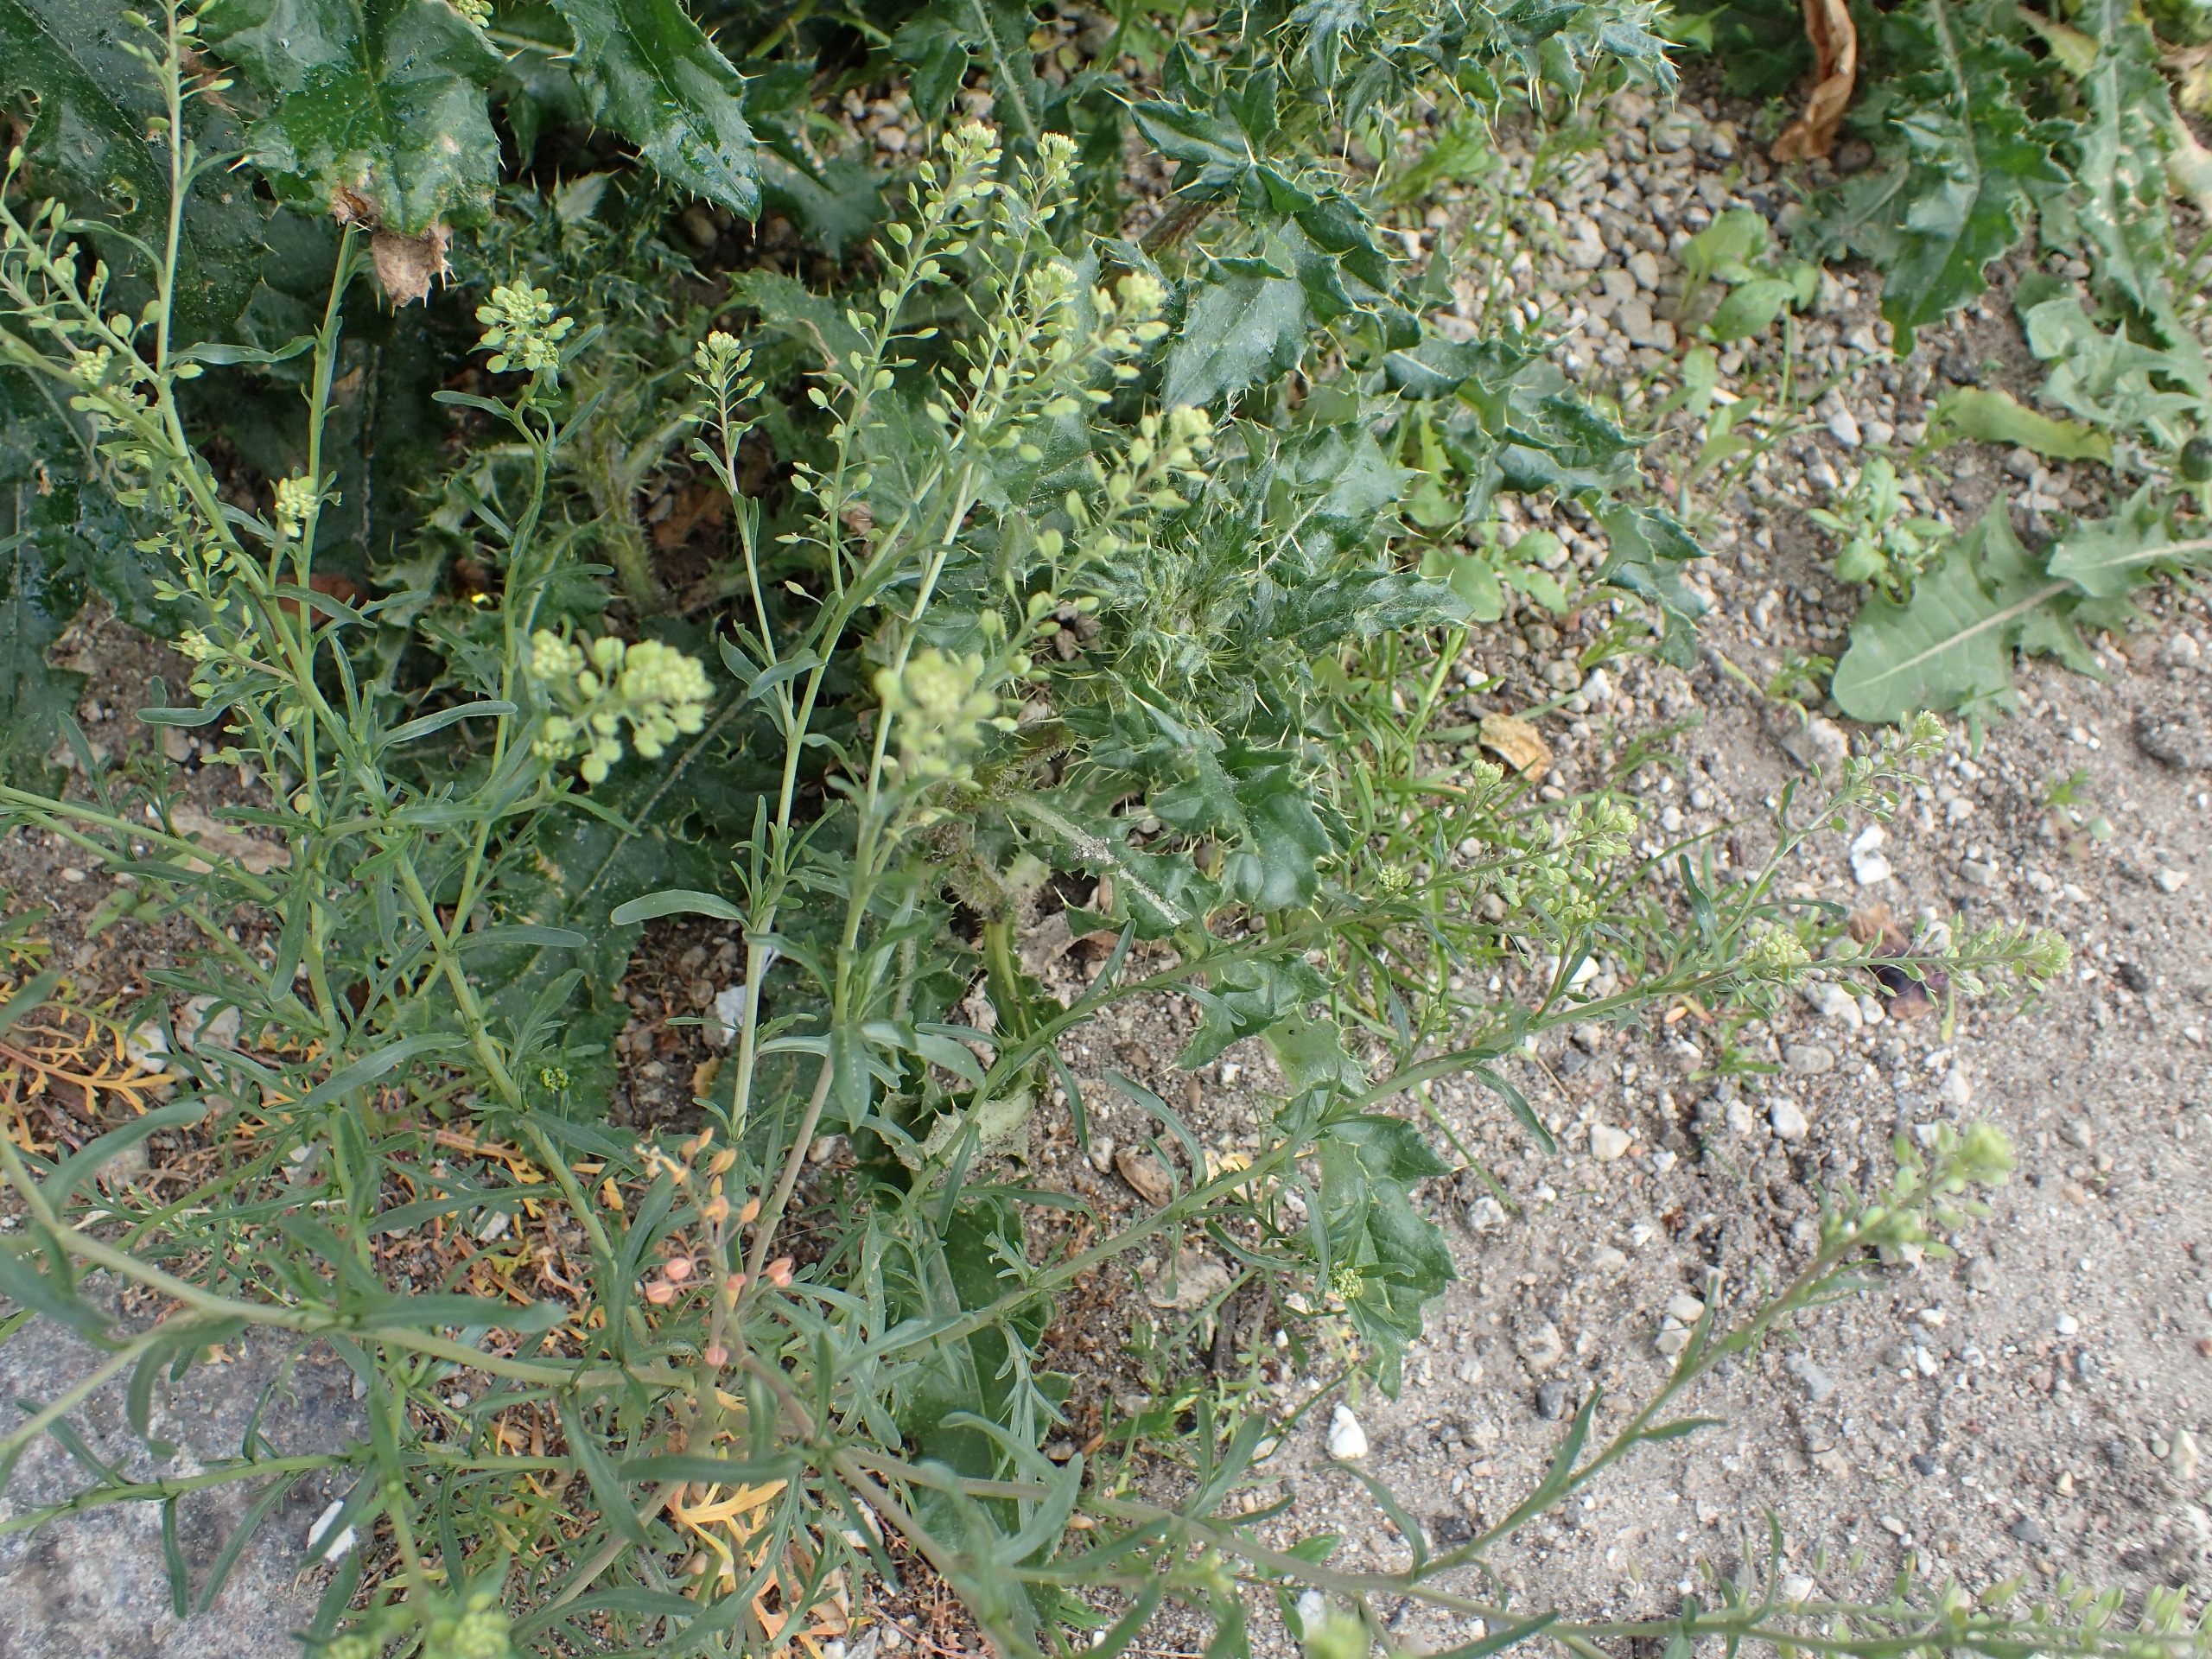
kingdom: Plantae
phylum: Tracheophyta
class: Magnoliopsida
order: Brassicales
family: Brassicaceae
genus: Lepidium
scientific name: Lepidium ruderale
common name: Stinkende karse
